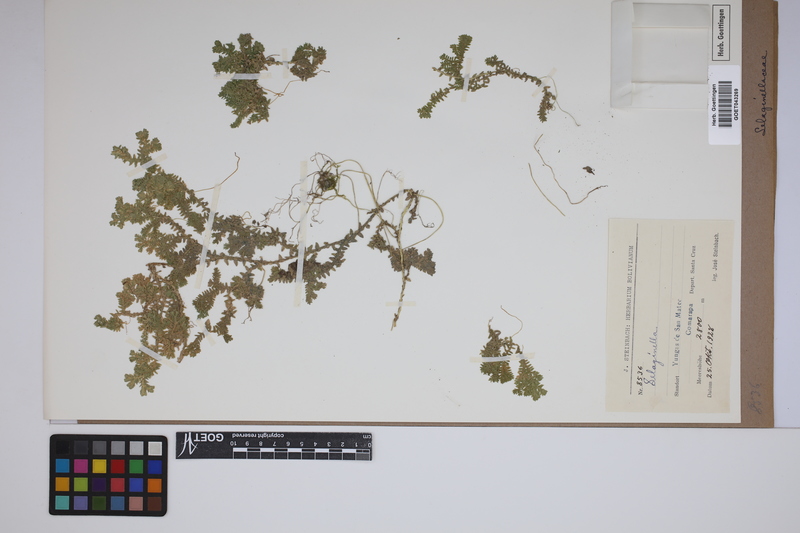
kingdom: Plantae
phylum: Tracheophyta
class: Lycopodiopsida
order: Selaginellales
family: Selaginellaceae
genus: Selaginella
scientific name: Selaginella
